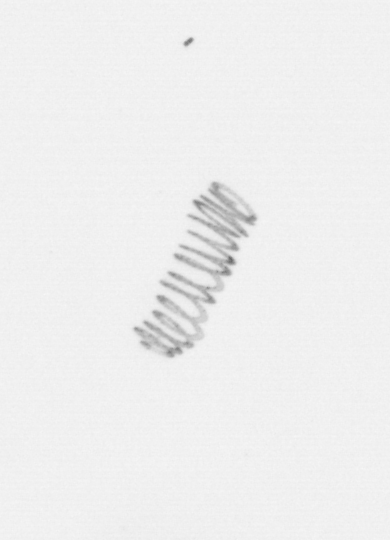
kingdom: Chromista
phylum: Ochrophyta
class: Bacillariophyceae
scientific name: Bacillariophyceae
